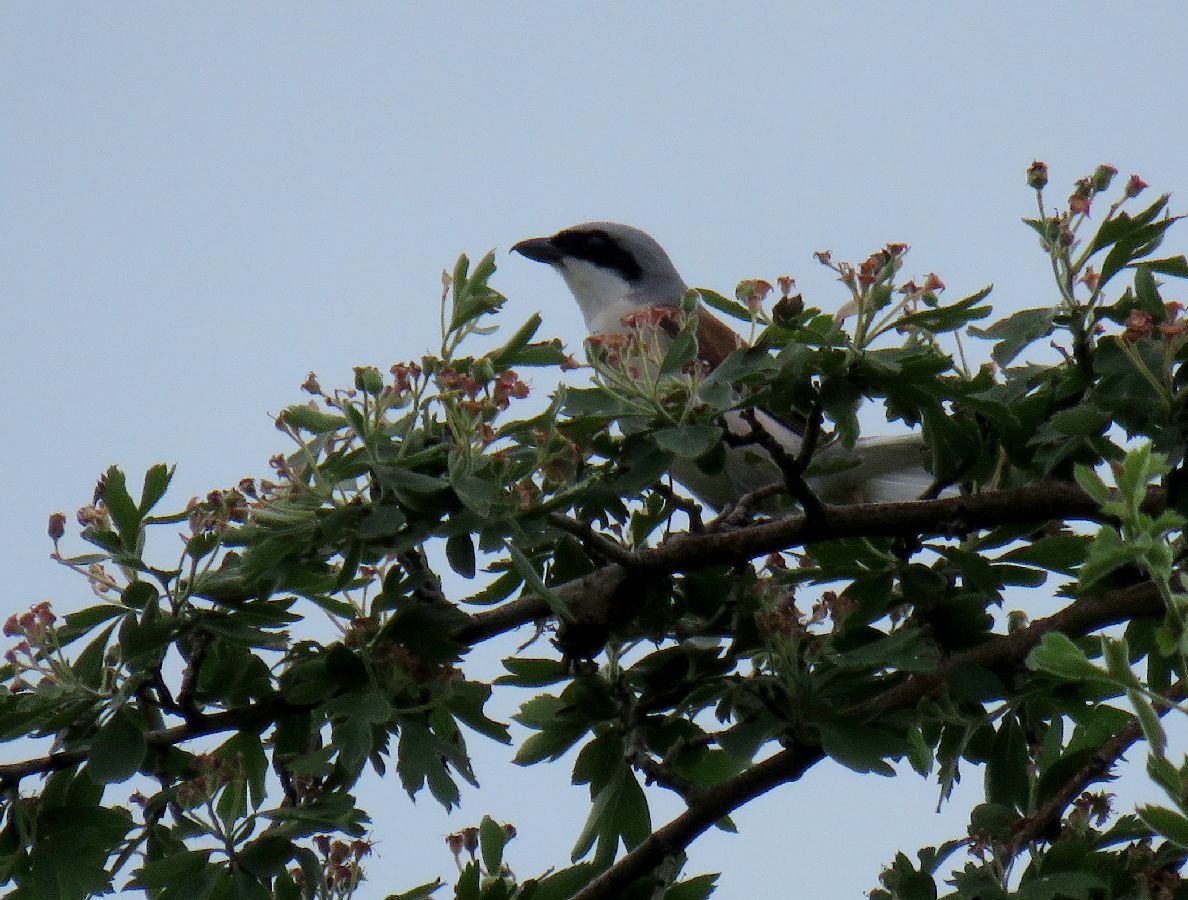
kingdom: Animalia
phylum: Chordata
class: Aves
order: Passeriformes
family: Laniidae
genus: Lanius
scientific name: Lanius collurio
